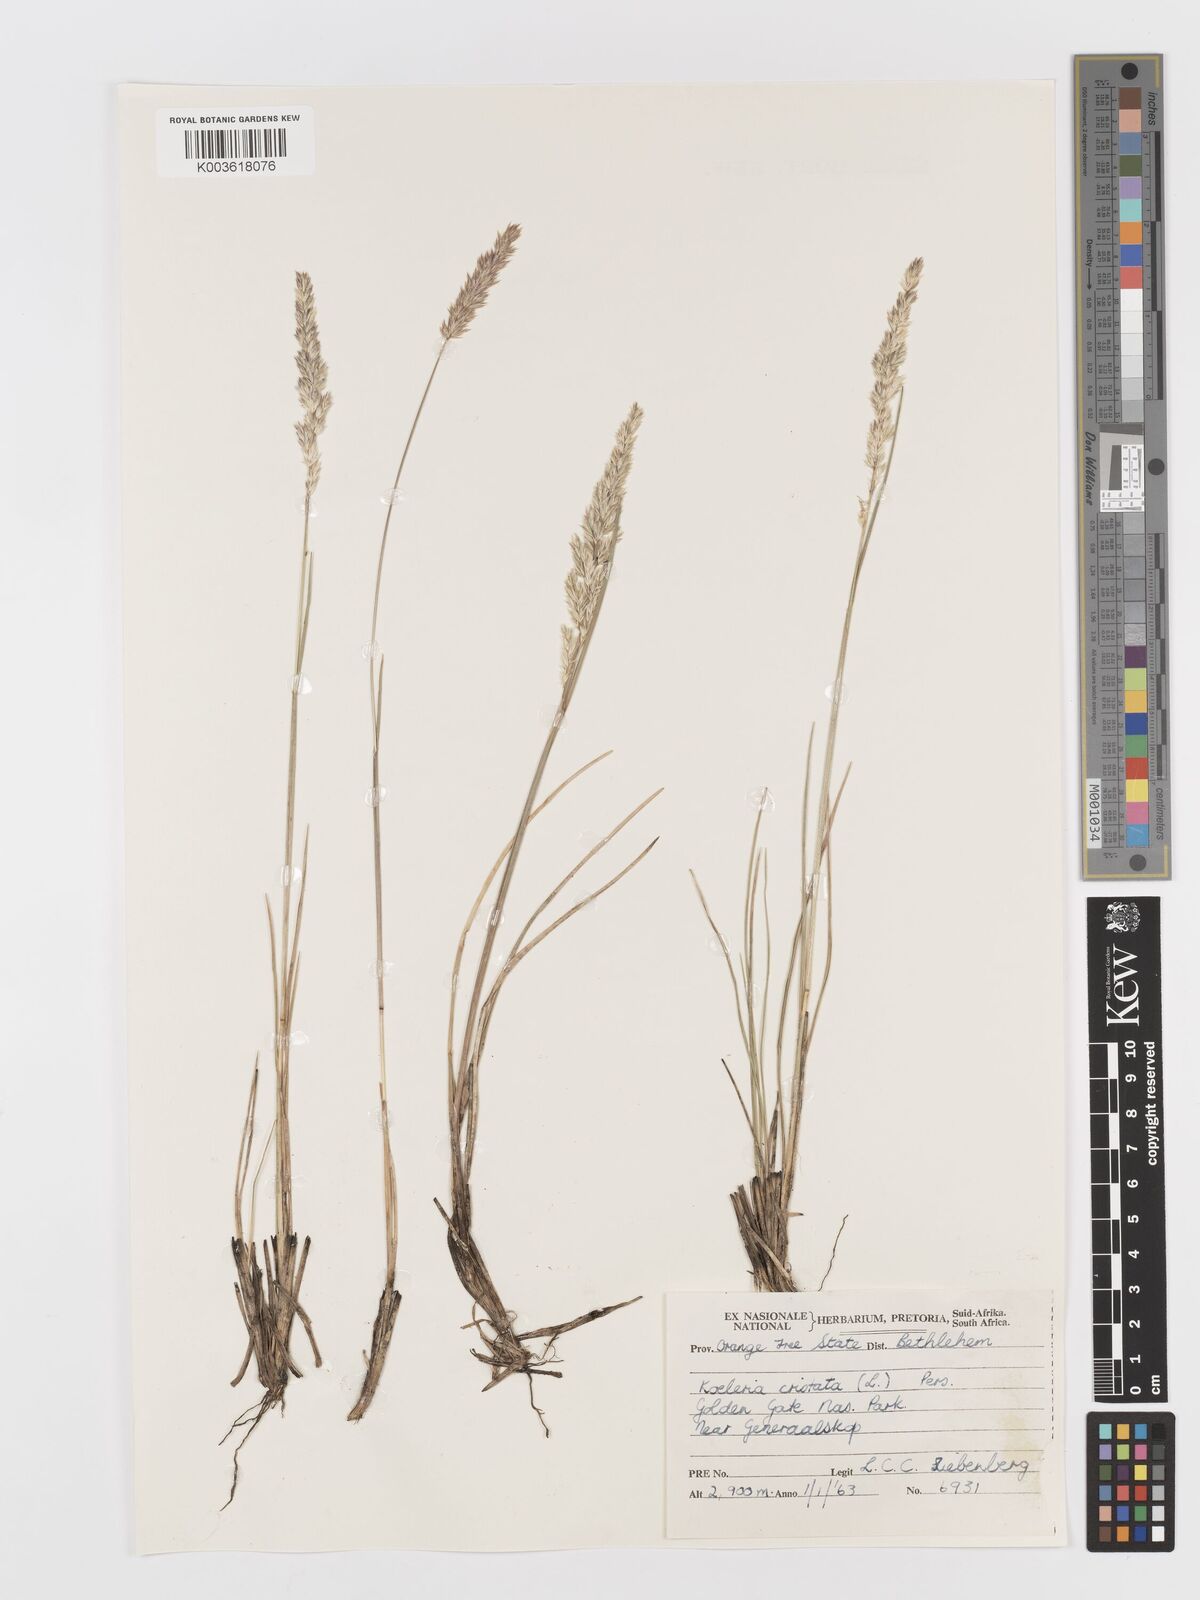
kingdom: Plantae
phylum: Tracheophyta
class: Liliopsida
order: Poales
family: Poaceae
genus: Koeleria
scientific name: Koeleria capensis
